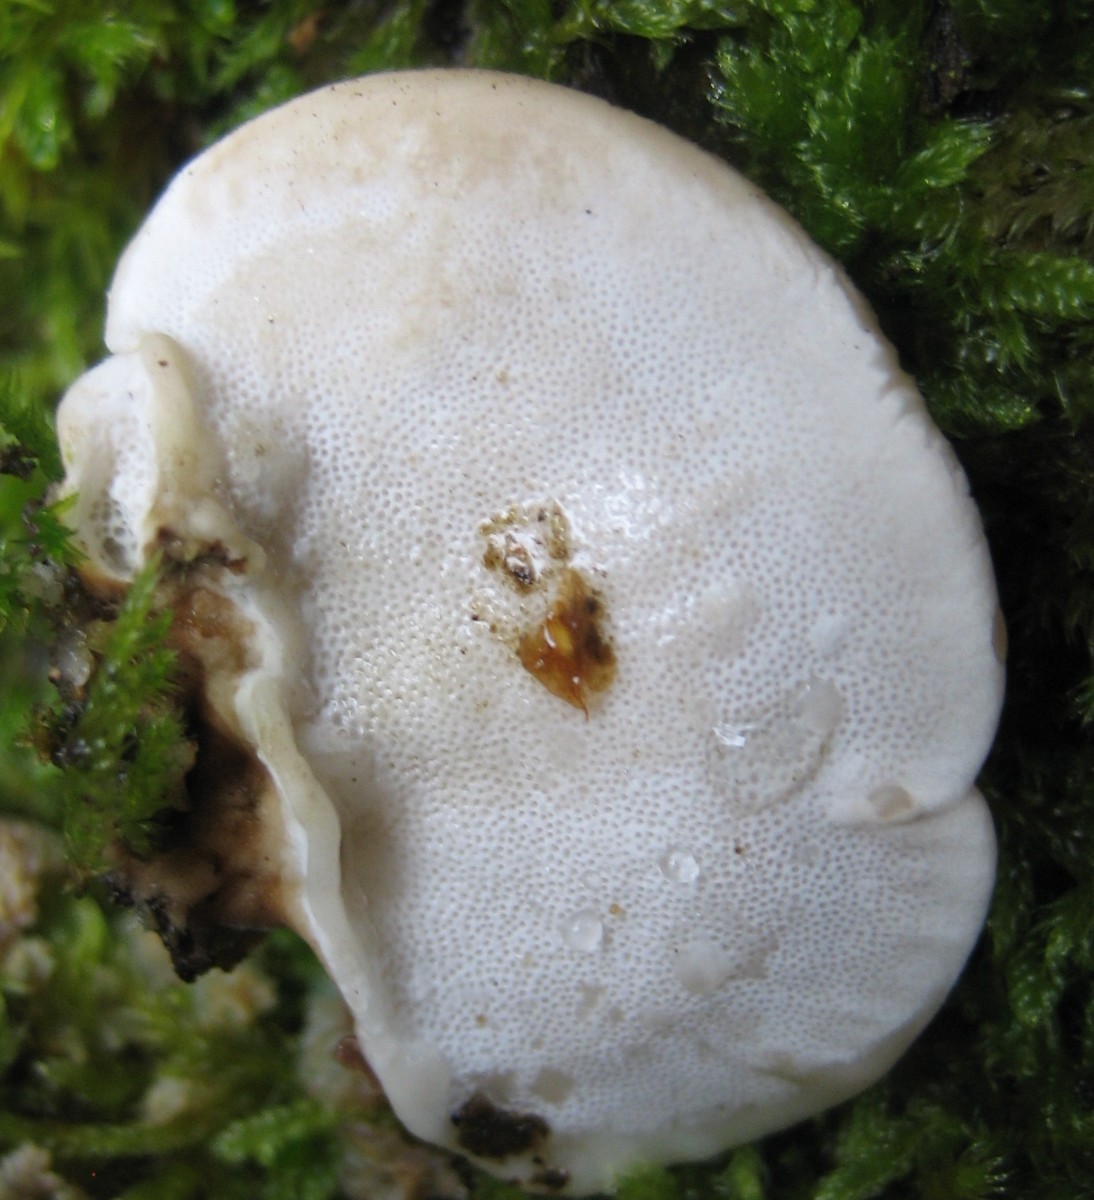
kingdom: Fungi
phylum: Basidiomycota
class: Agaricomycetes
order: Polyporales
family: Polyporaceae
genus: Trametes
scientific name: Trametes versicolor
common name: broget læderporesvamp
